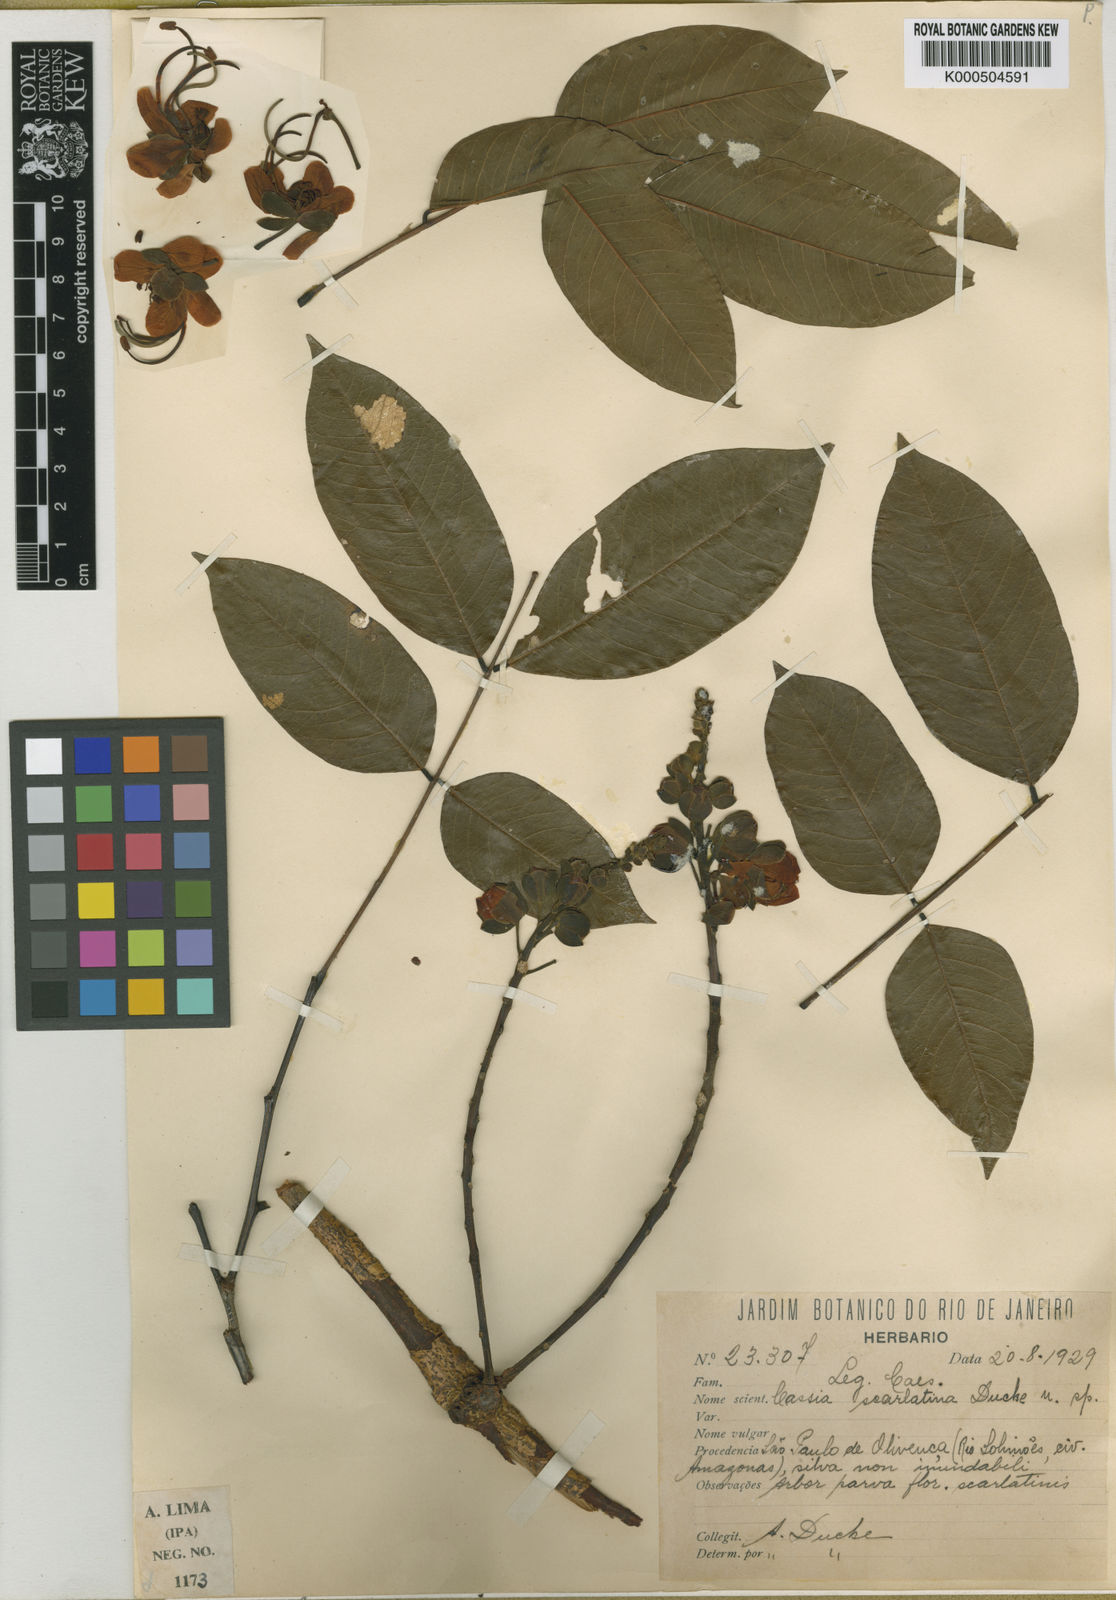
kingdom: Plantae
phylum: Tracheophyta
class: Magnoliopsida
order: Fabales
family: Fabaceae
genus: Cassia
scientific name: Cassia spruceana
